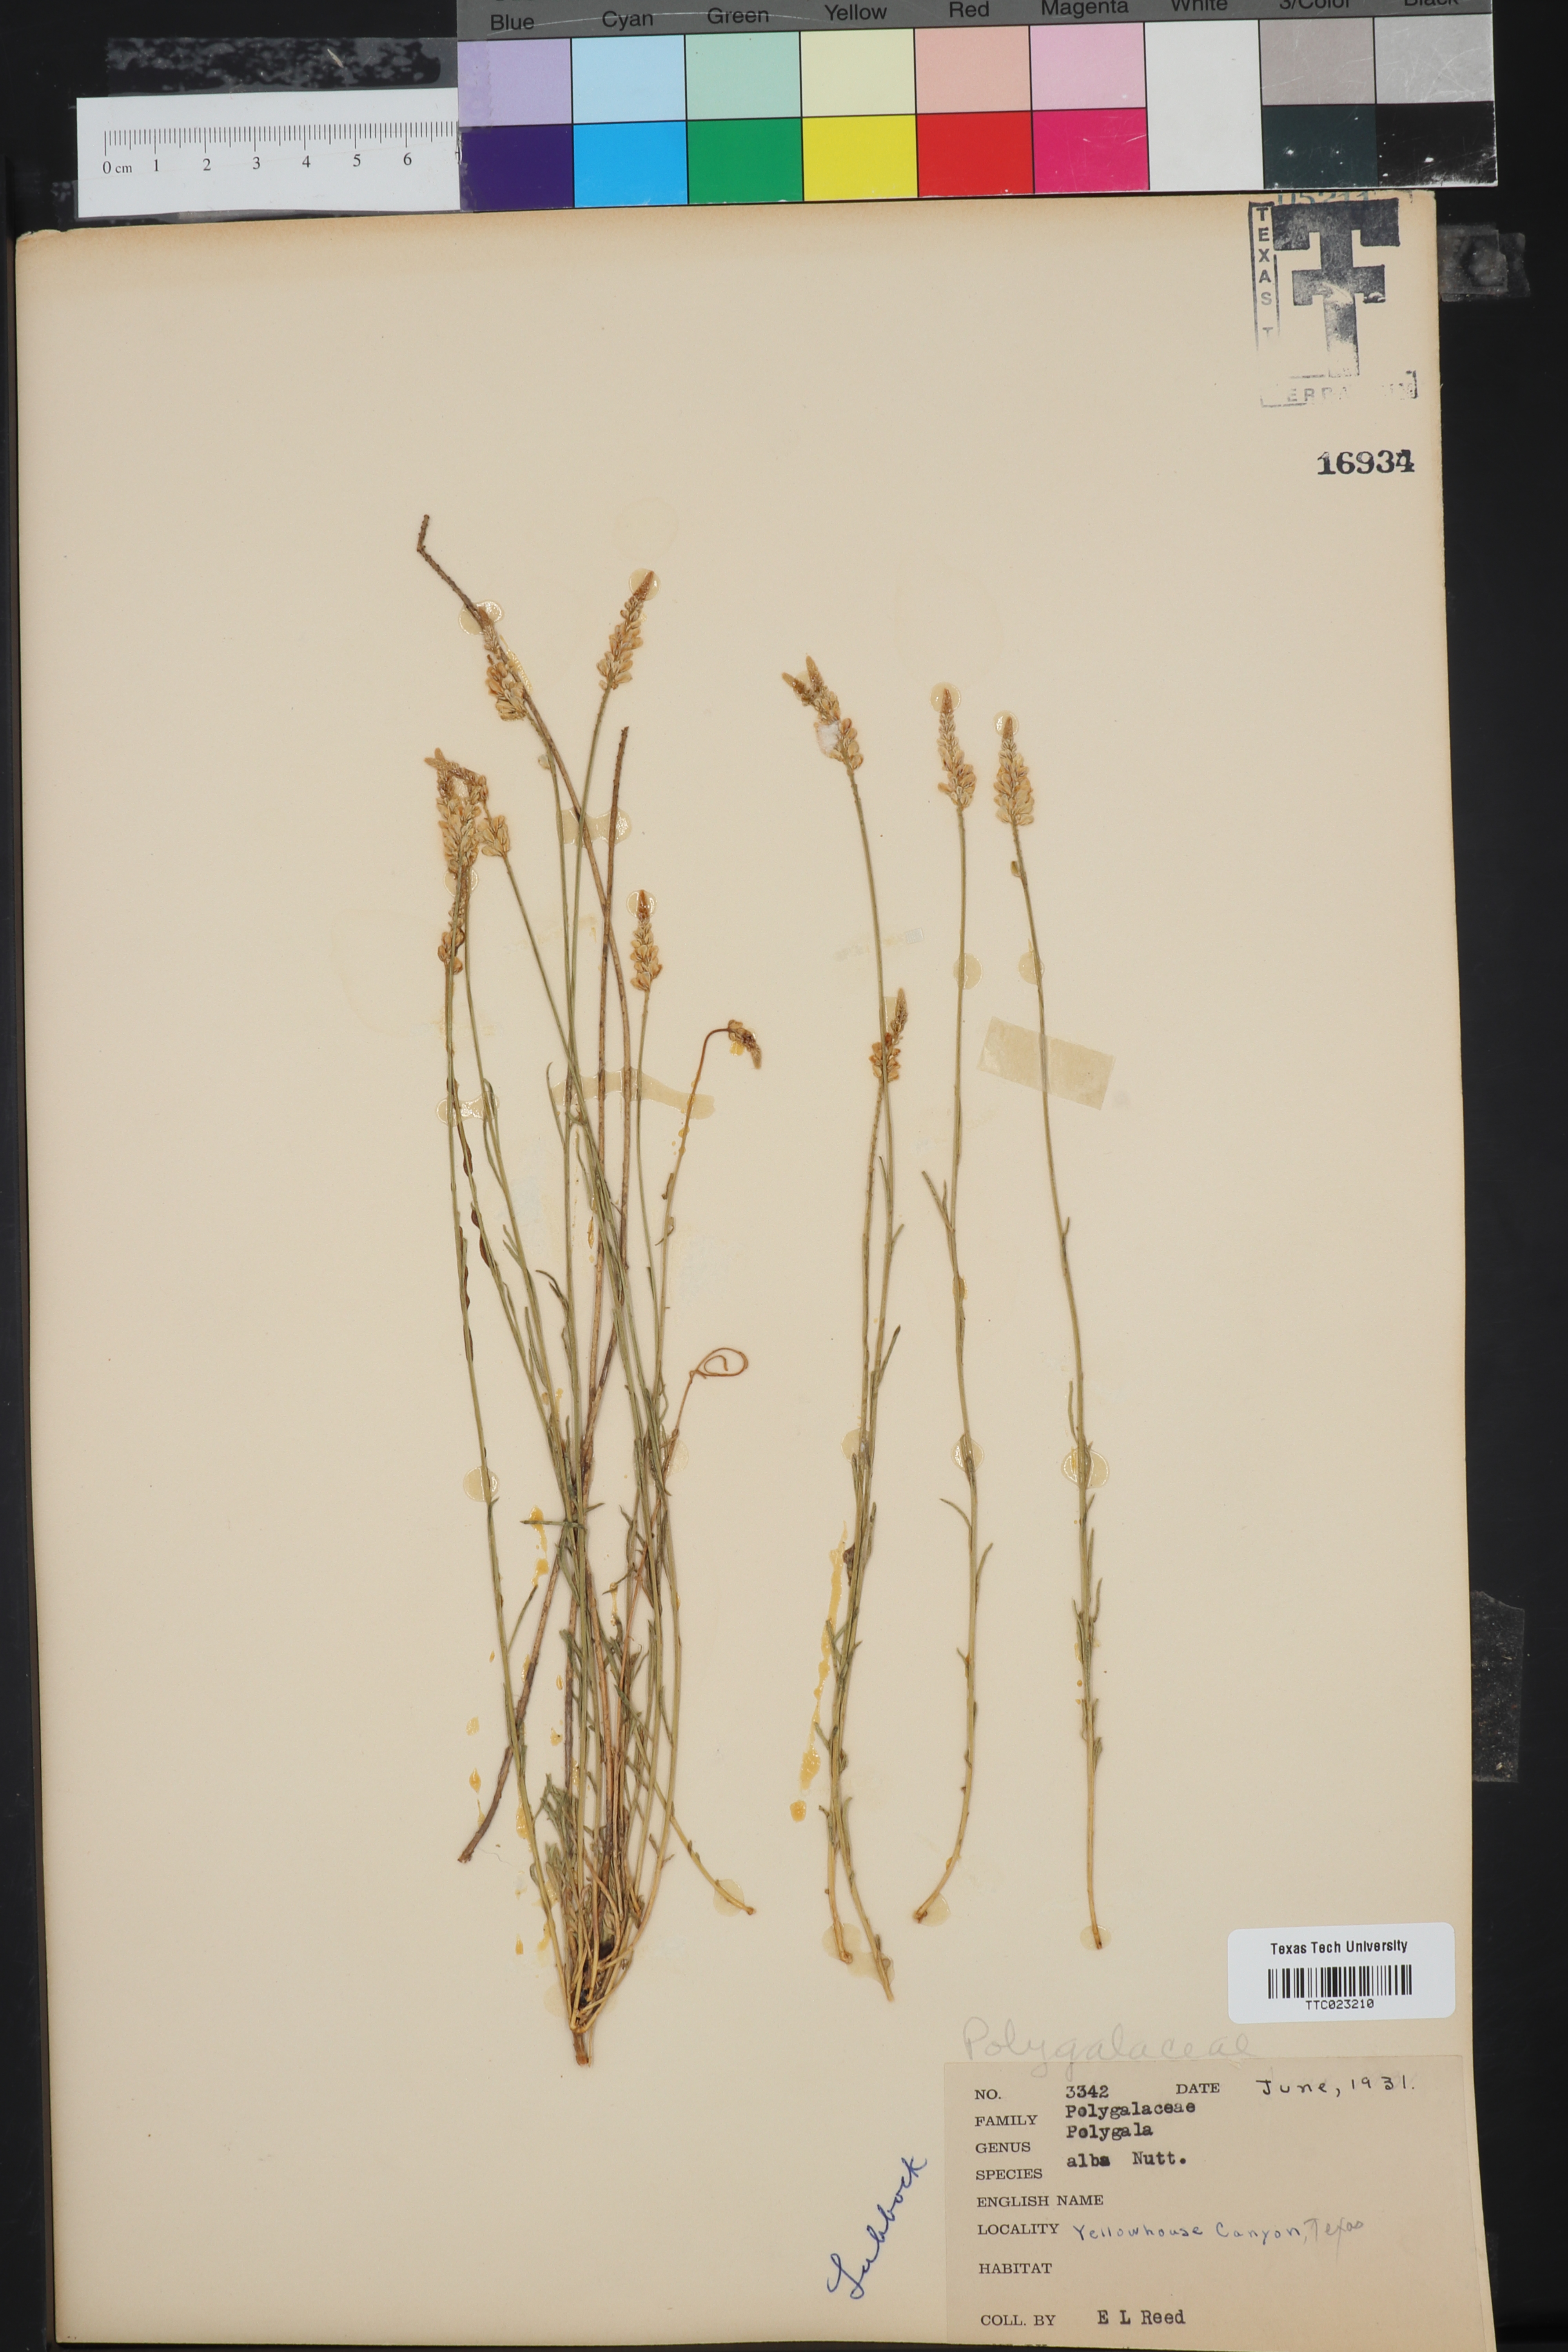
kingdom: Plantae
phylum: Tracheophyta
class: Magnoliopsida
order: Fabales
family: Polygalaceae
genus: Polygala
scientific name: Polygala alba
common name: White milkwort
